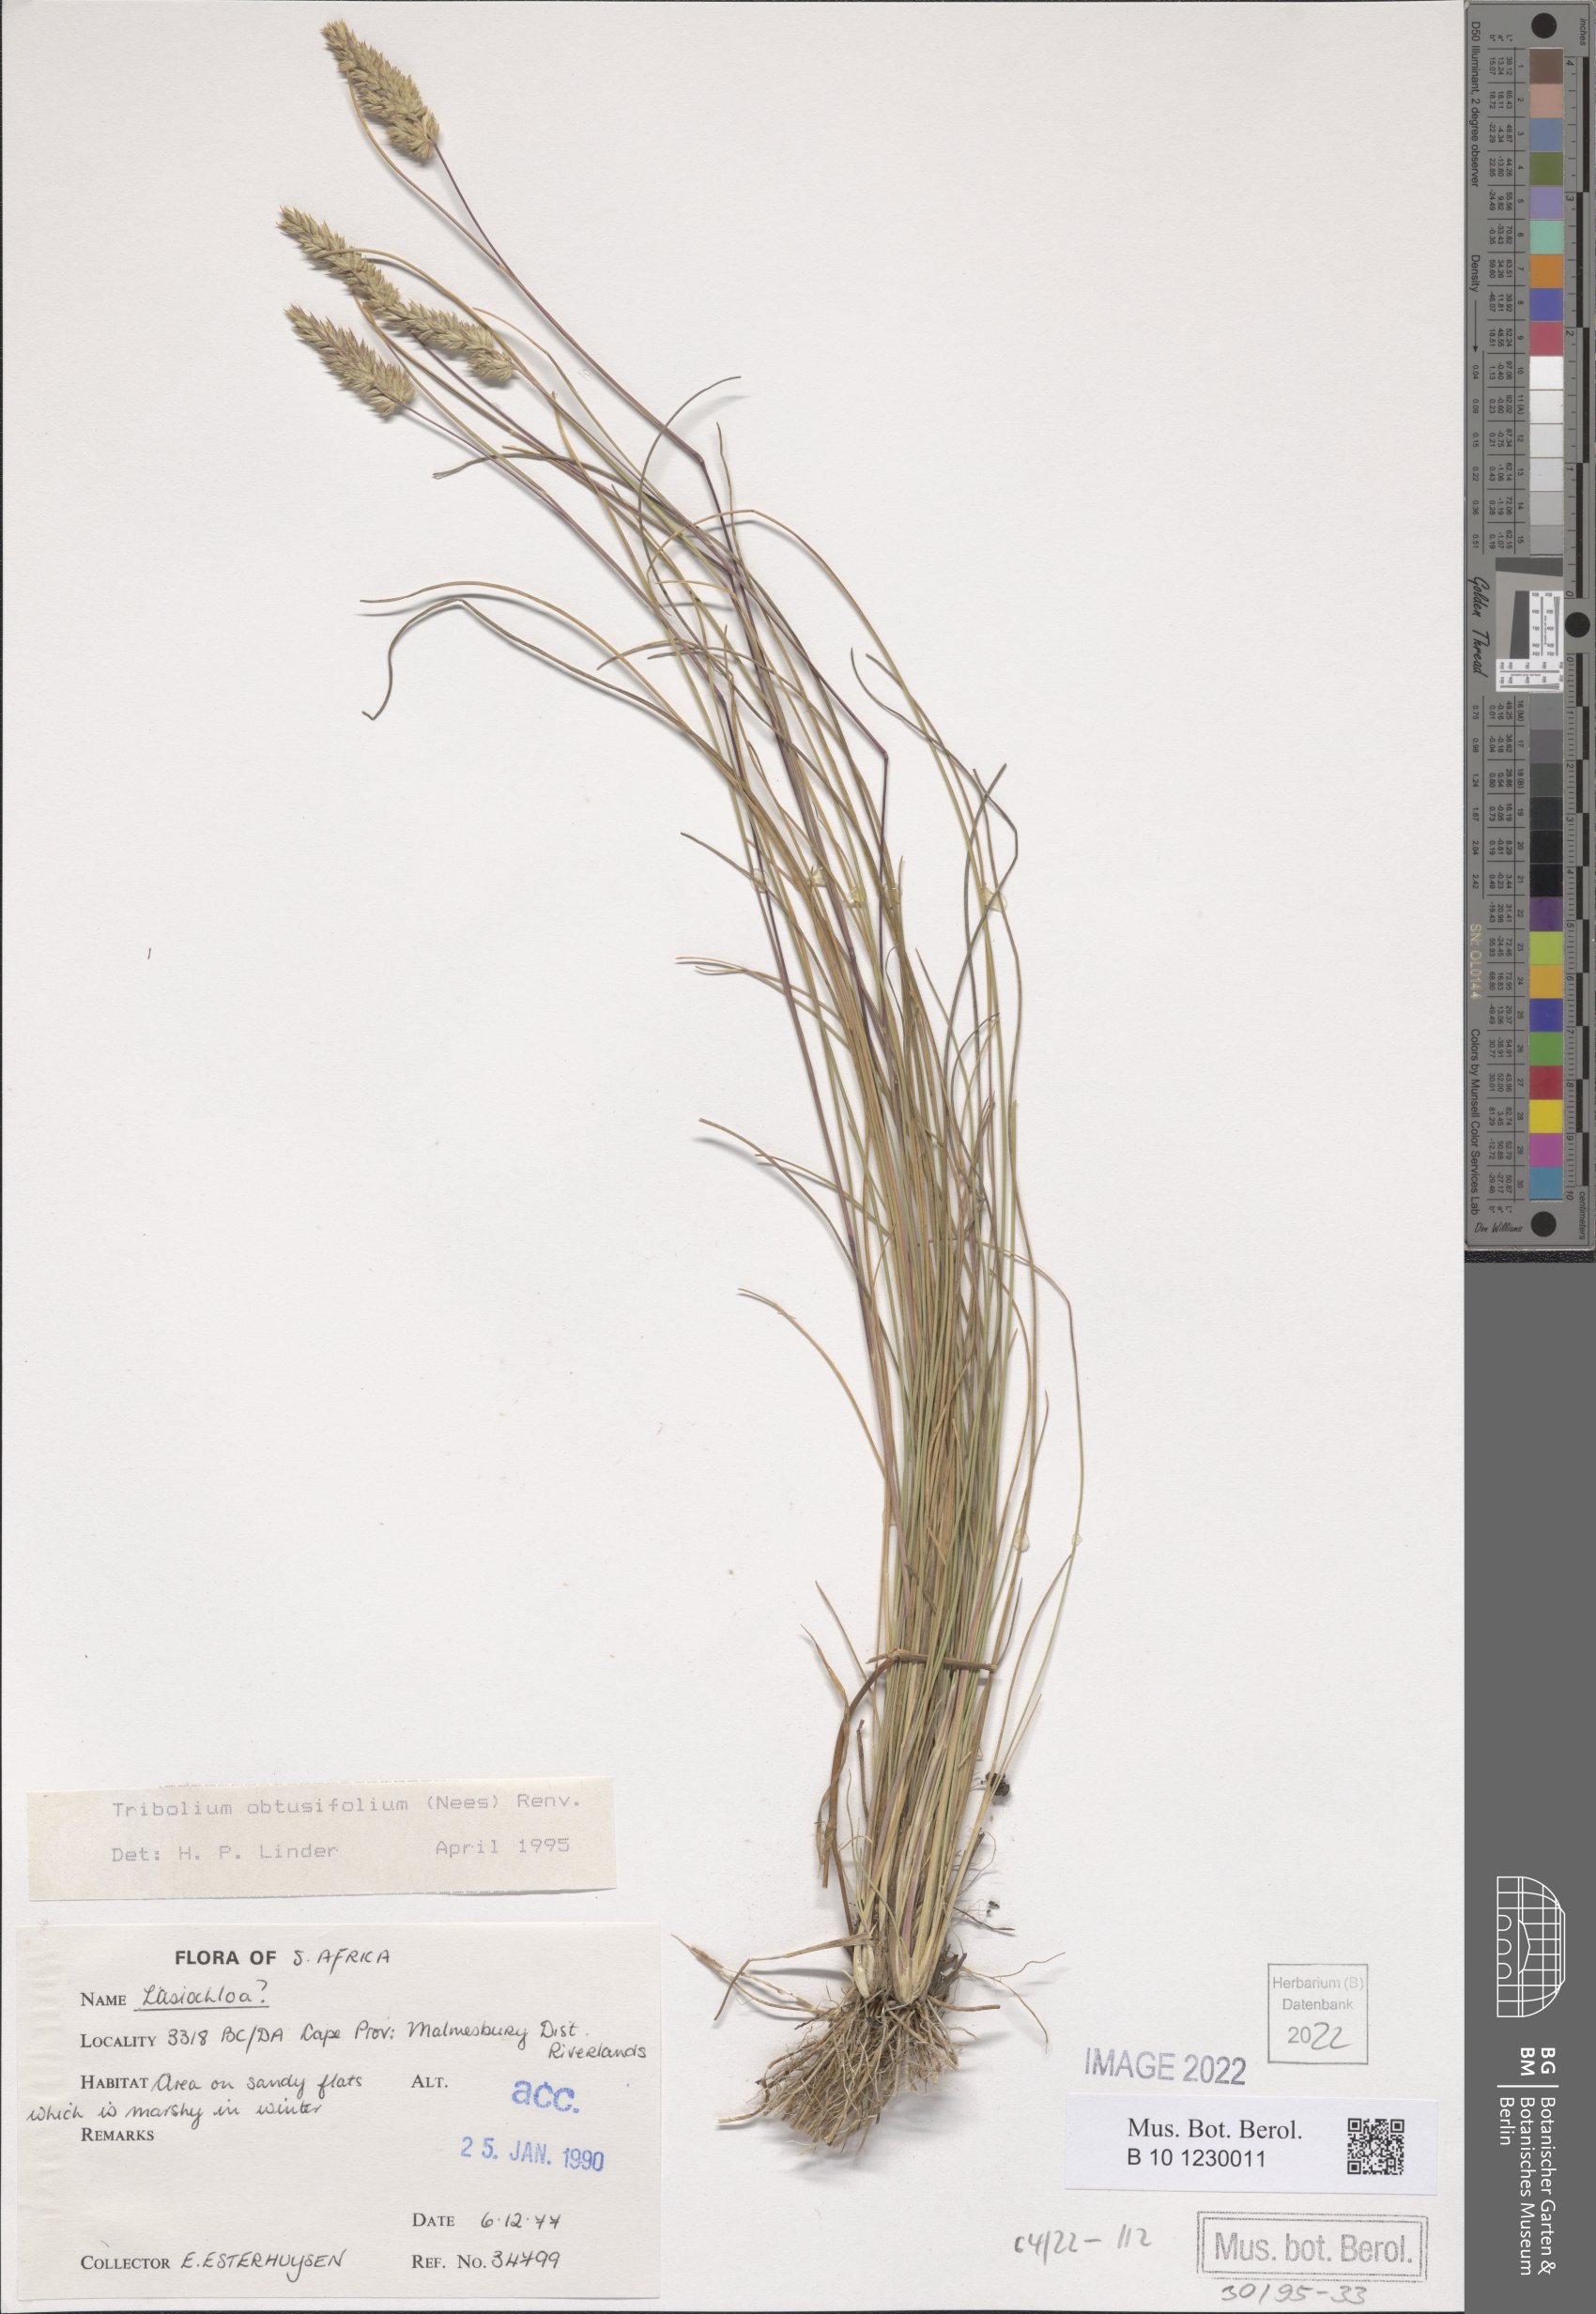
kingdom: Plantae
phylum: Tracheophyta
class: Liliopsida
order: Poales
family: Poaceae
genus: Tribolium
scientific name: Tribolium obtusifolium
